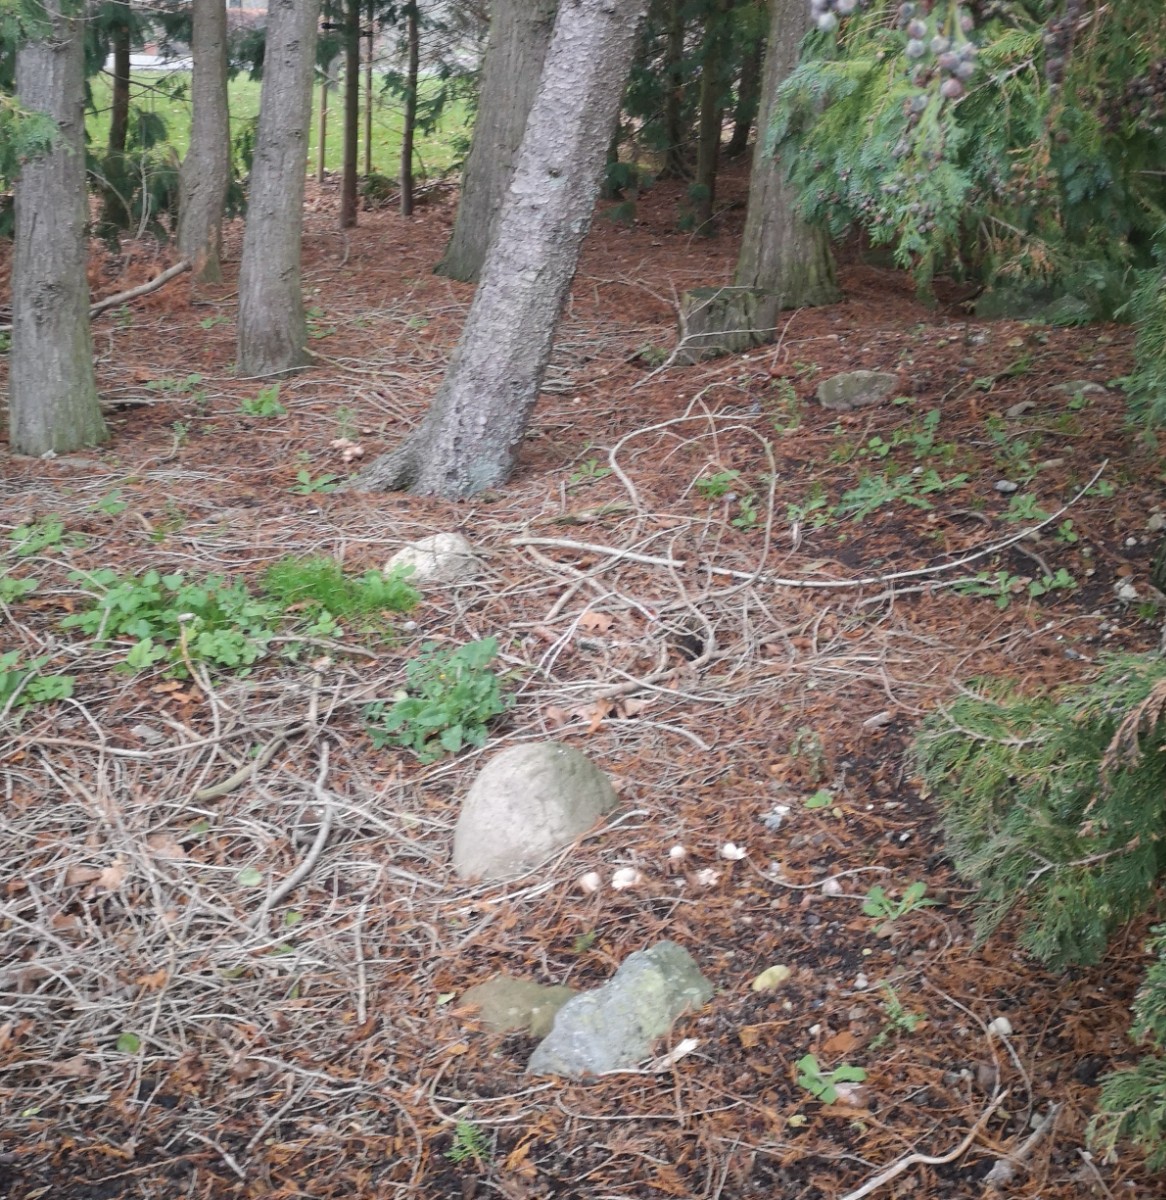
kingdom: Fungi
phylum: Basidiomycota
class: Agaricomycetes
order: Geastrales
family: Geastraceae
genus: Geastrum
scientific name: Geastrum michelianum
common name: kødet stjernebold
